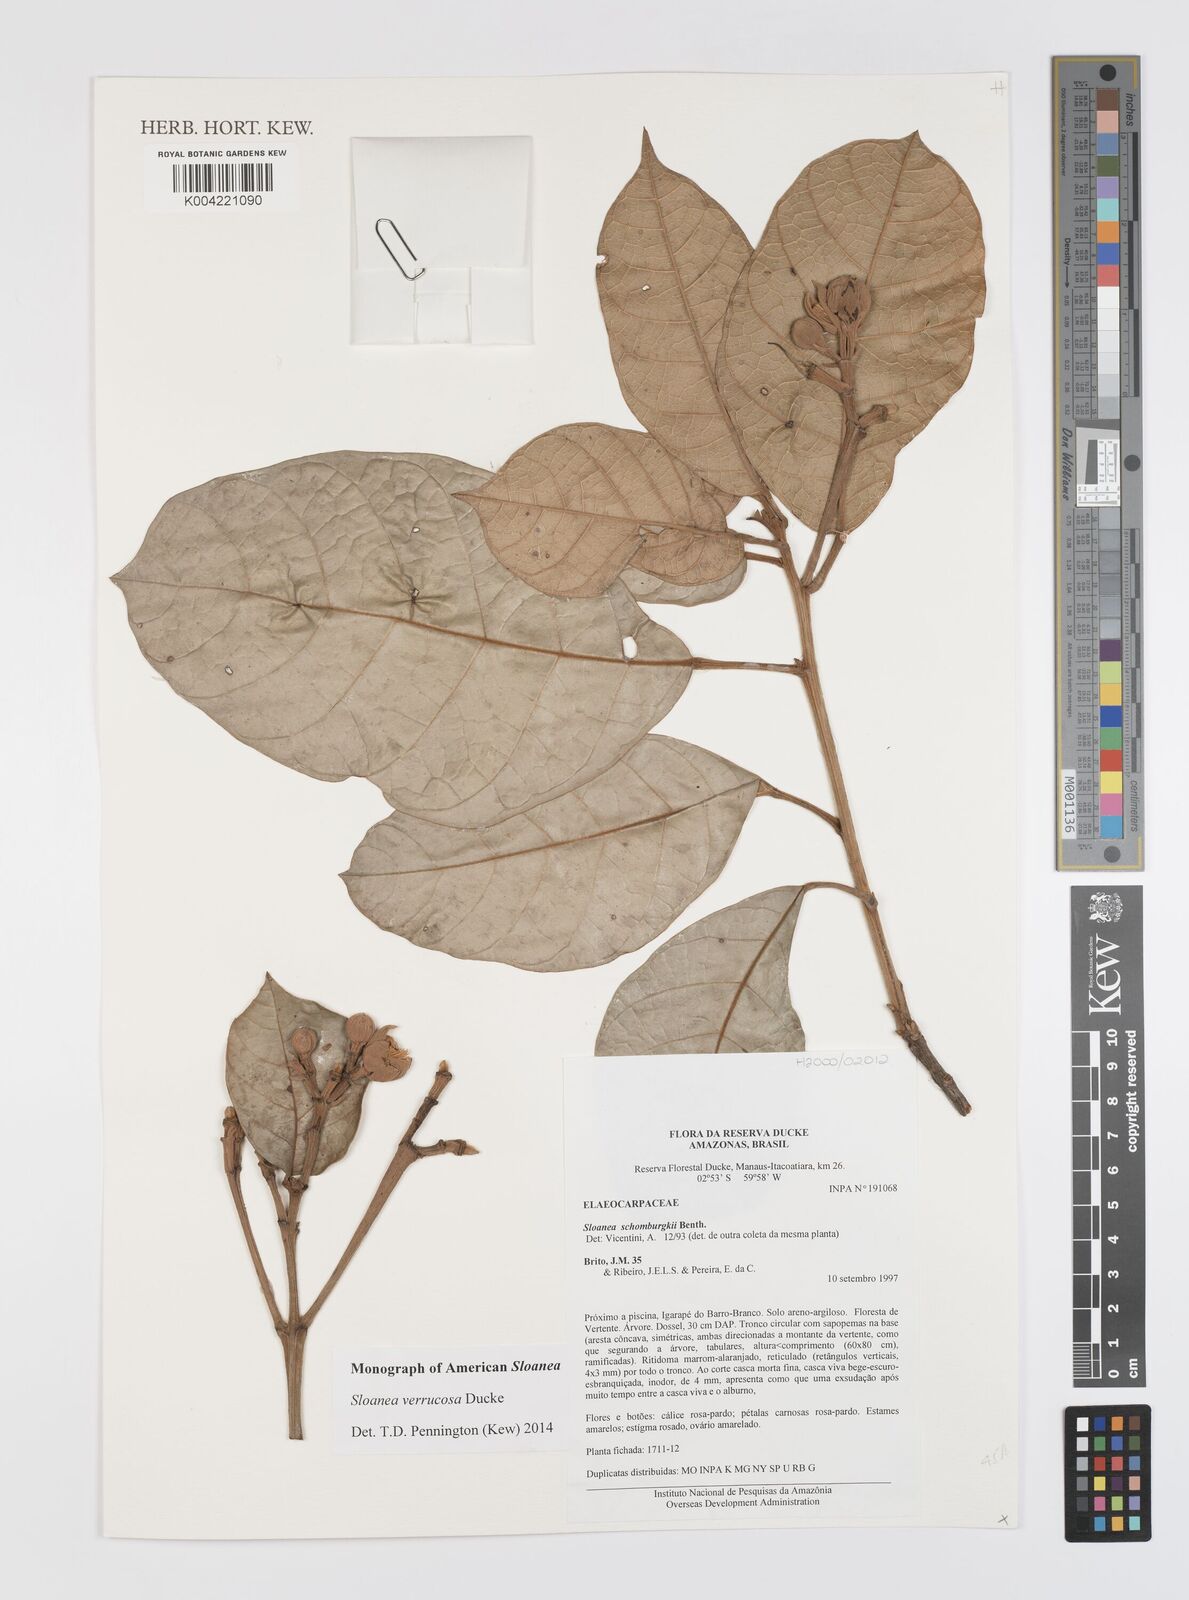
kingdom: Plantae
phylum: Tracheophyta
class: Magnoliopsida
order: Oxalidales
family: Elaeocarpaceae
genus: Sloanea
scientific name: Sloanea schomburgkii
